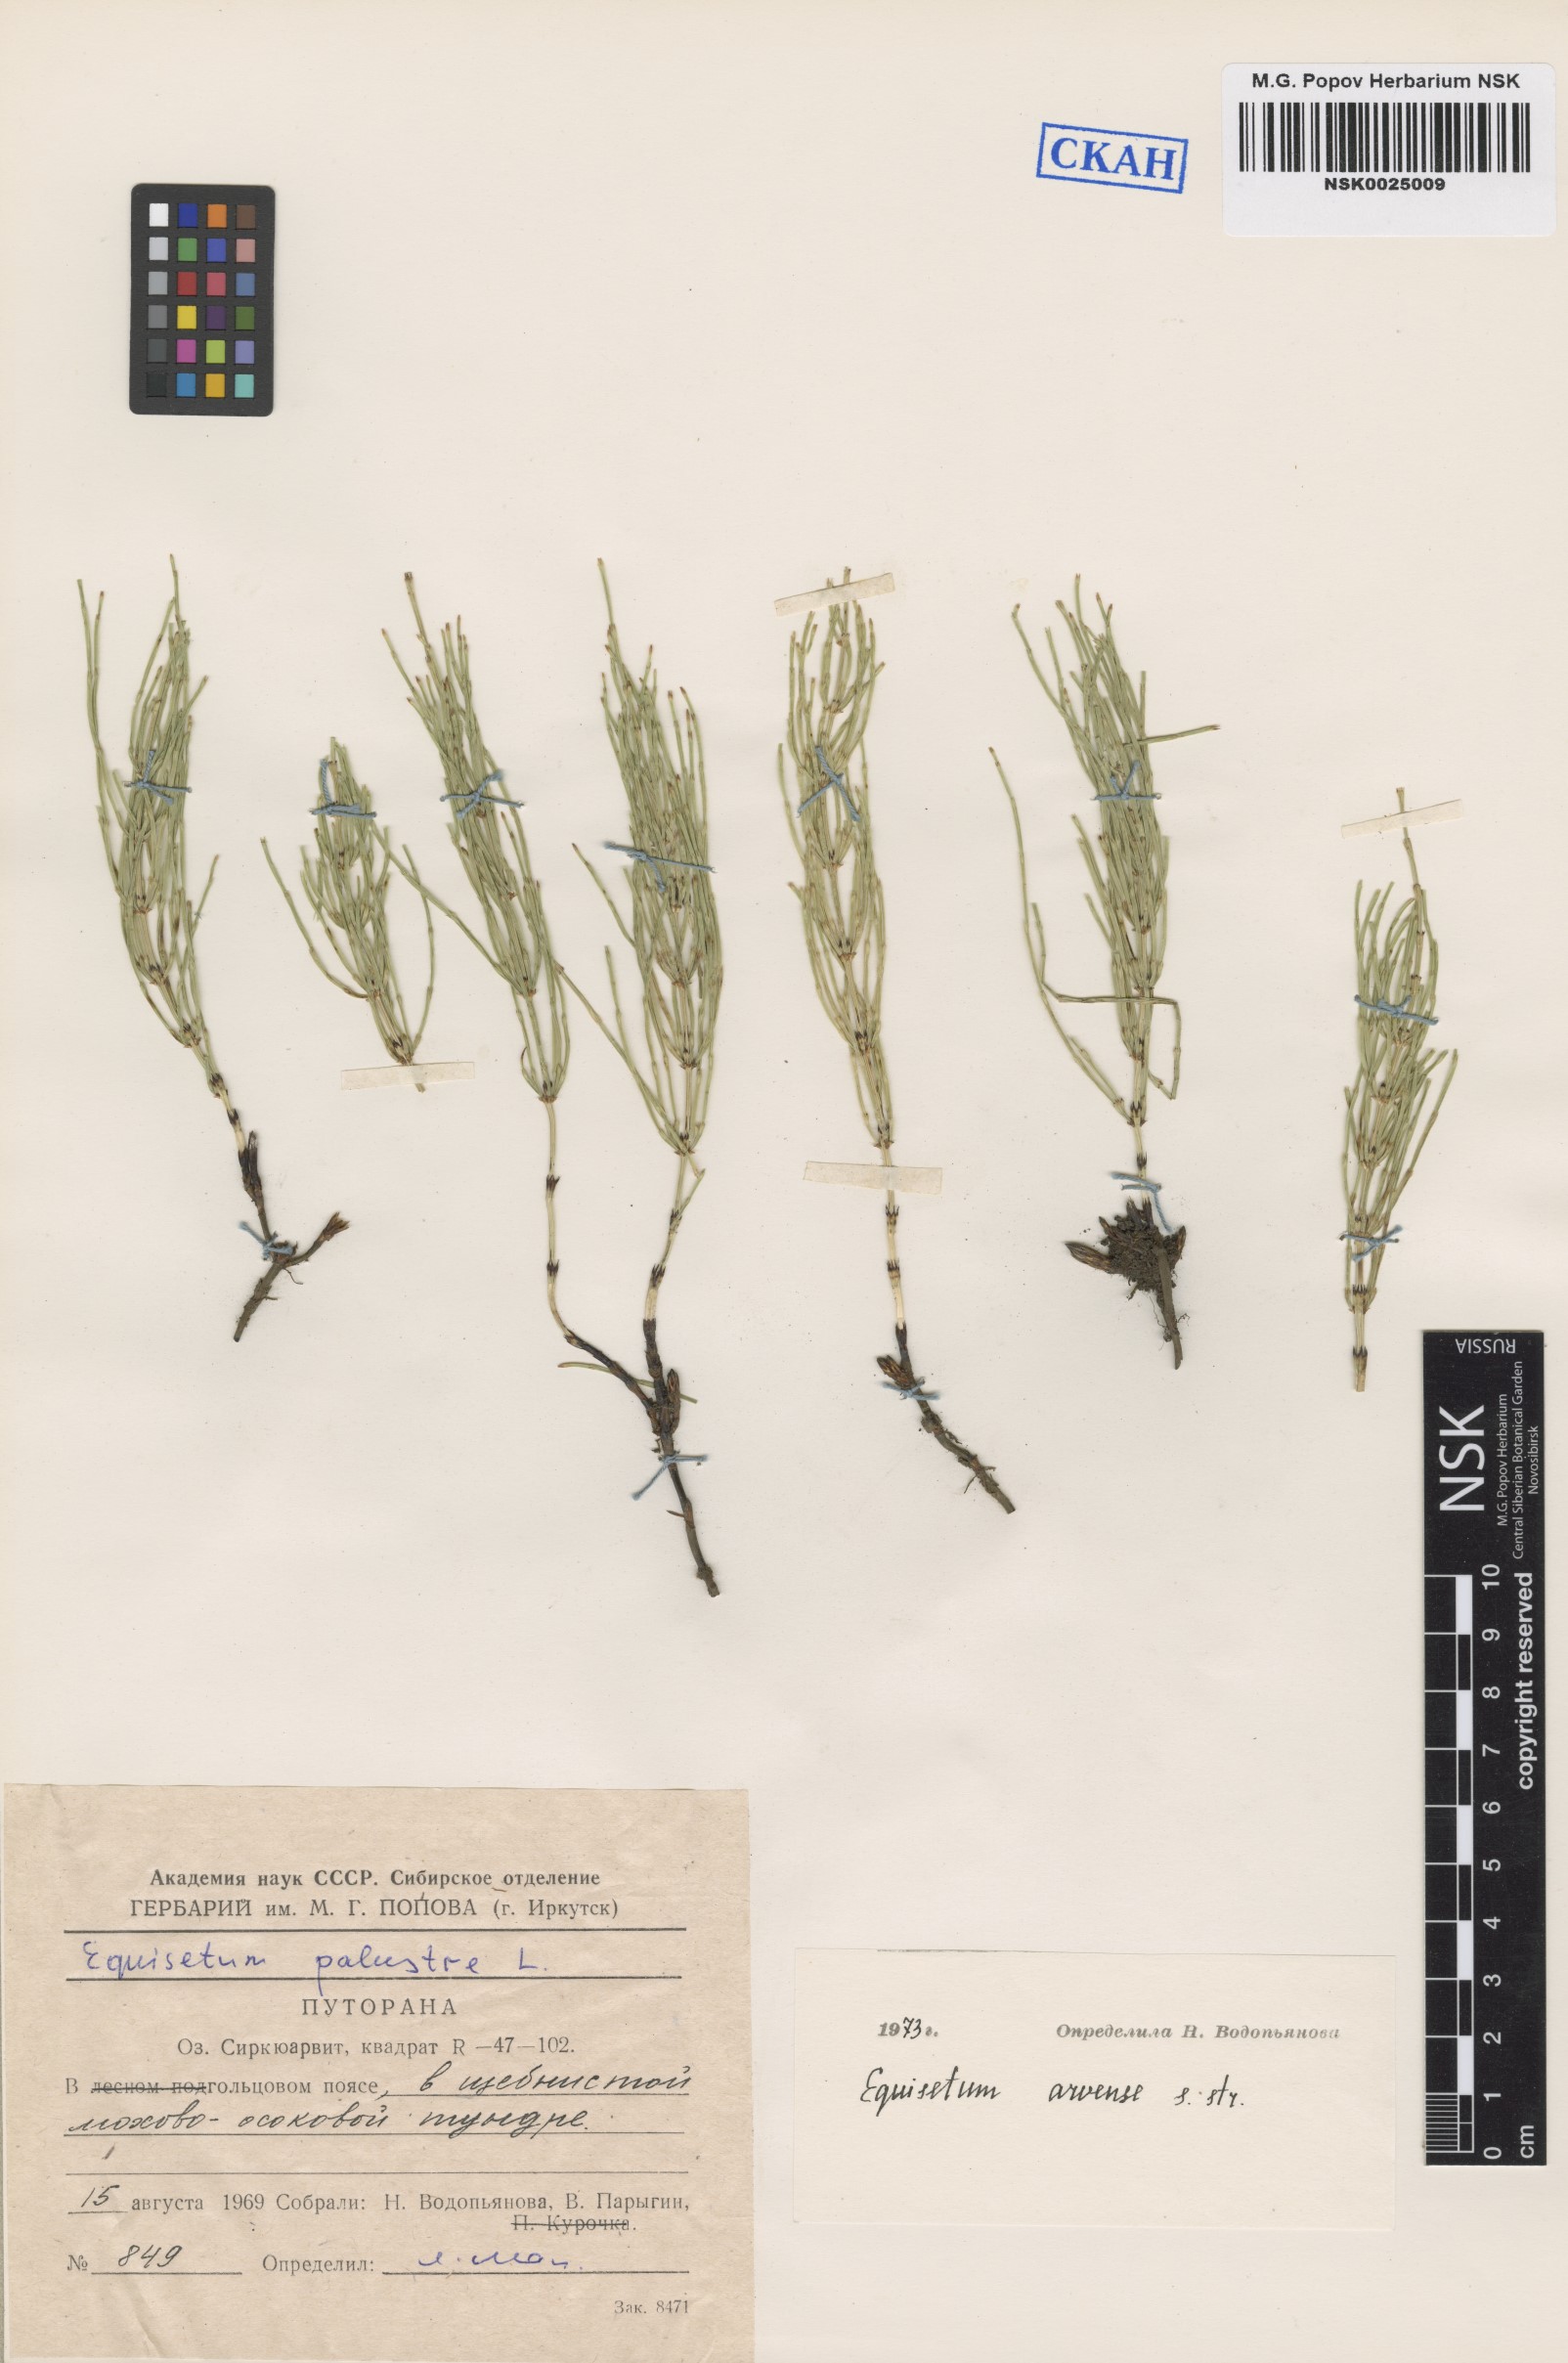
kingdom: Plantae
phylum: Tracheophyta
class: Polypodiopsida
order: Equisetales
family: Equisetaceae
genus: Equisetum
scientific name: Equisetum arvense
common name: Field horsetail
